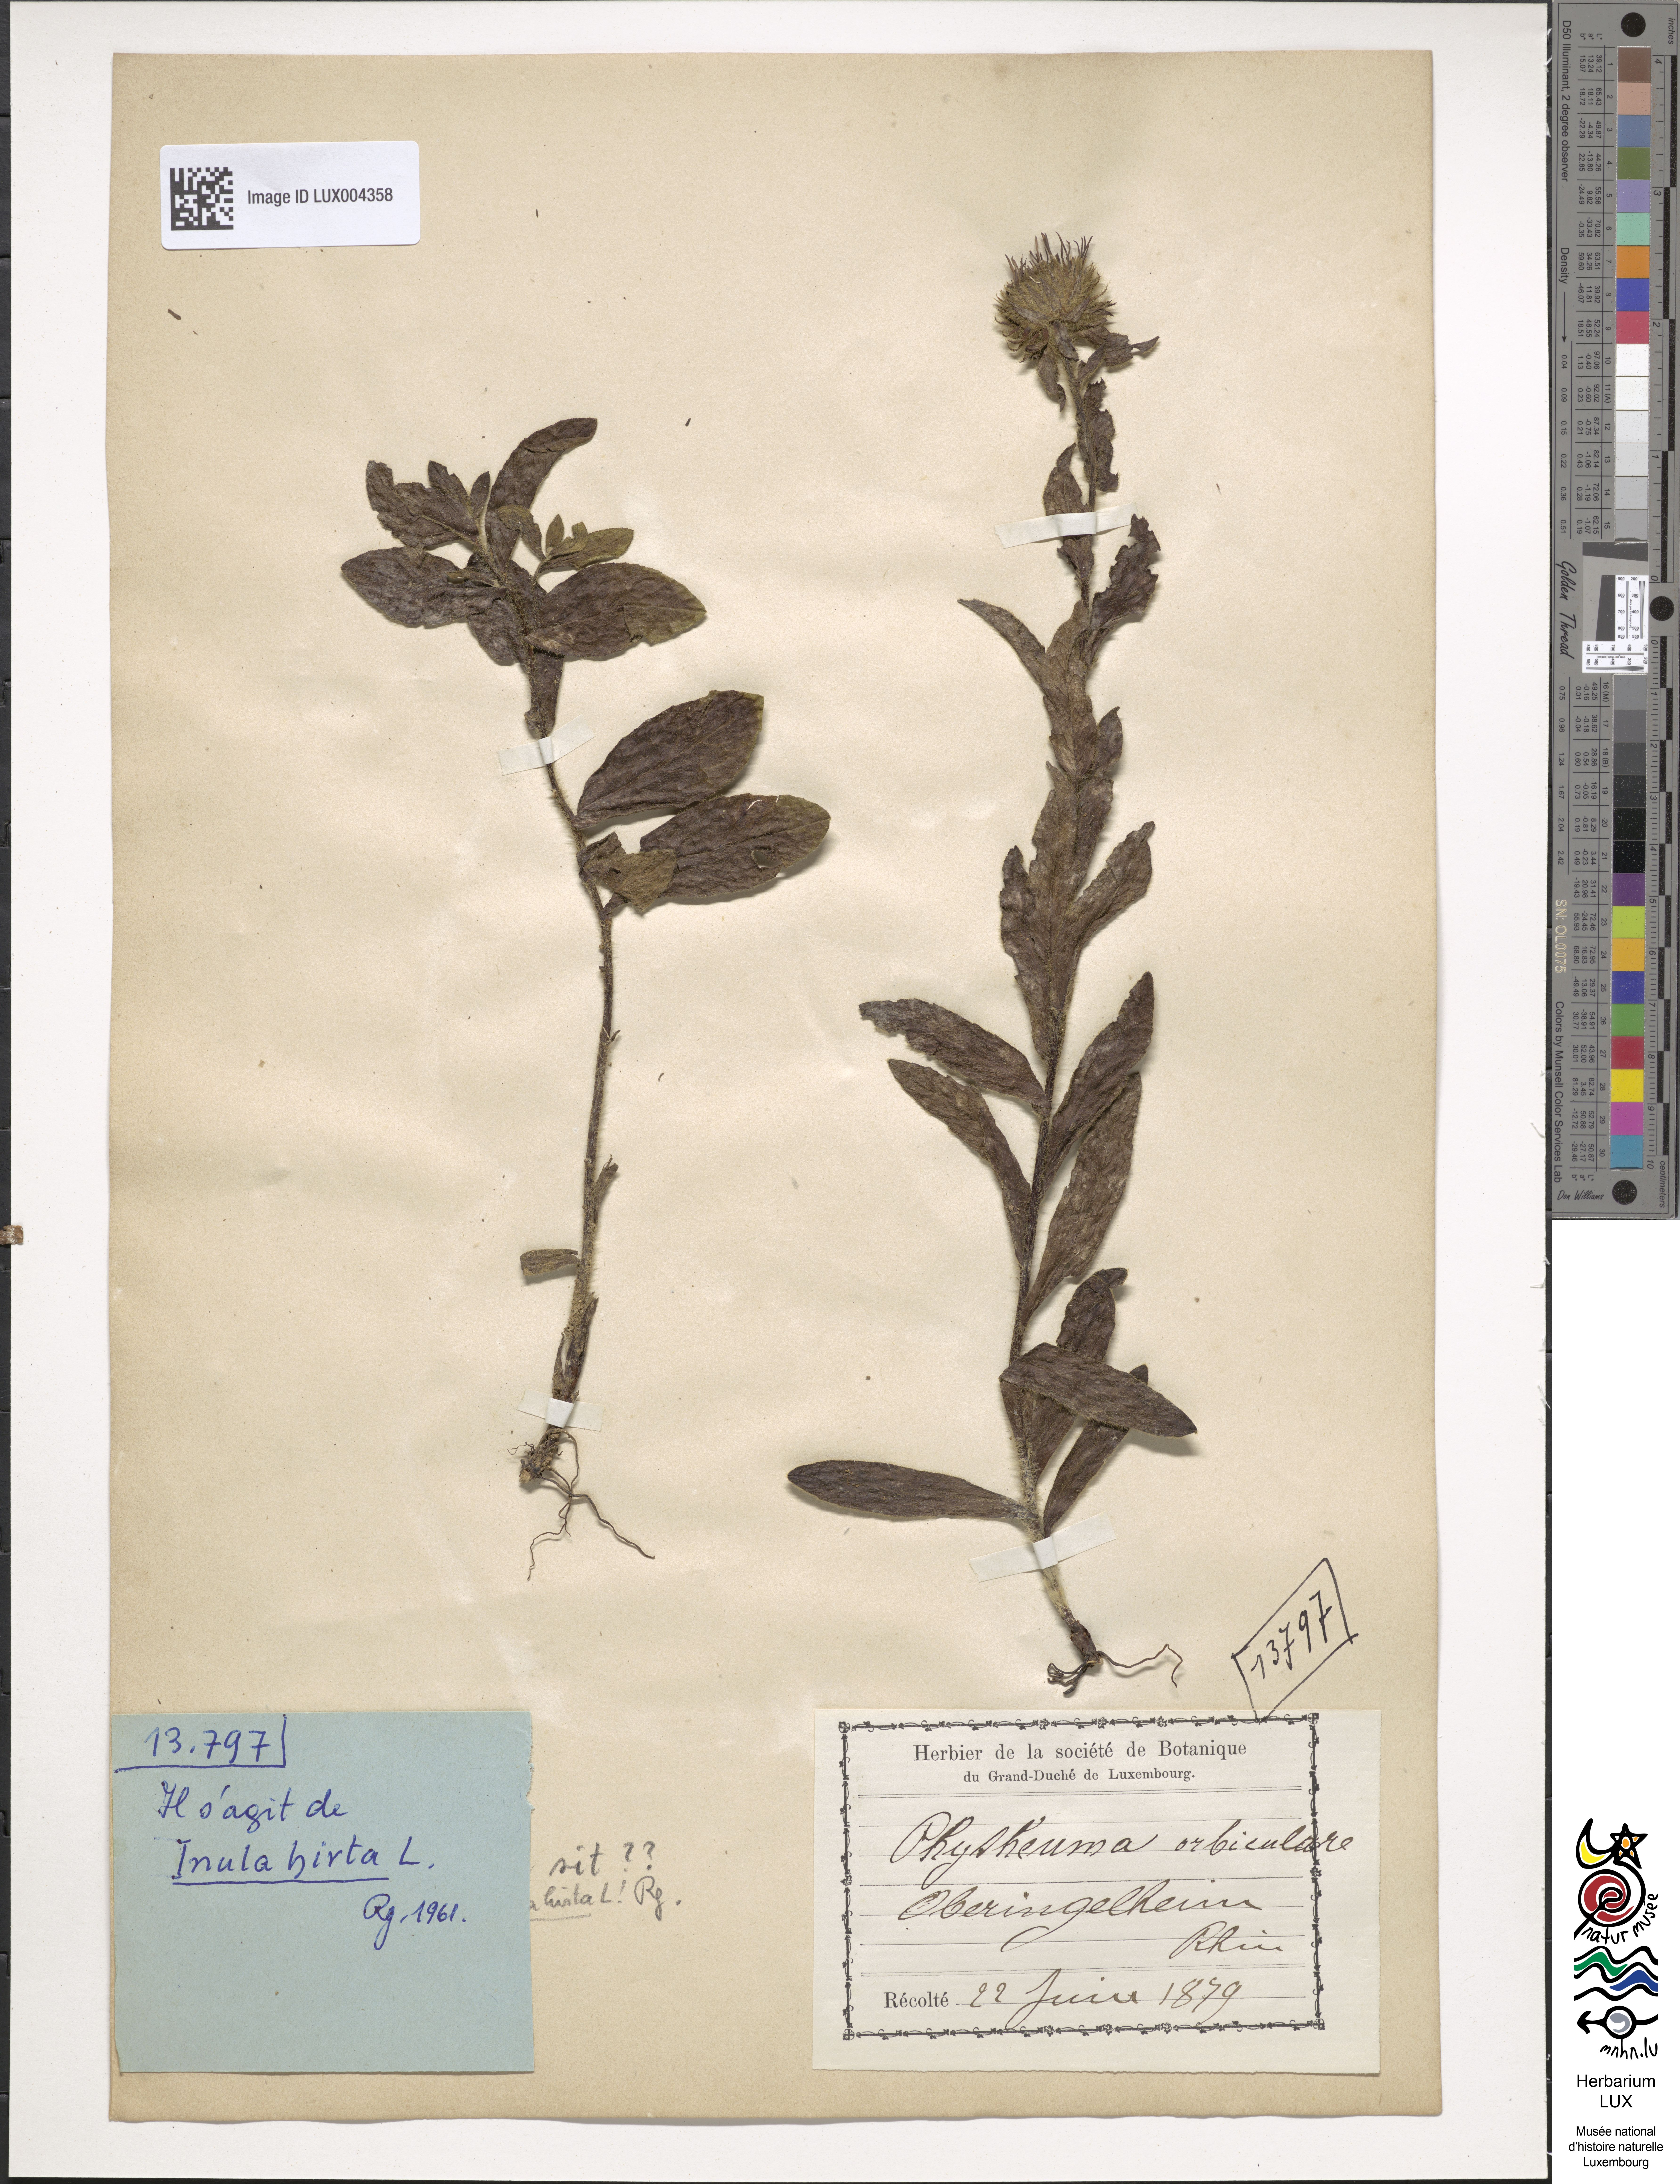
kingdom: Plantae
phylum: Tracheophyta
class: Magnoliopsida
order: Asterales
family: Asteraceae
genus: Pentanema
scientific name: Pentanema hirtum
